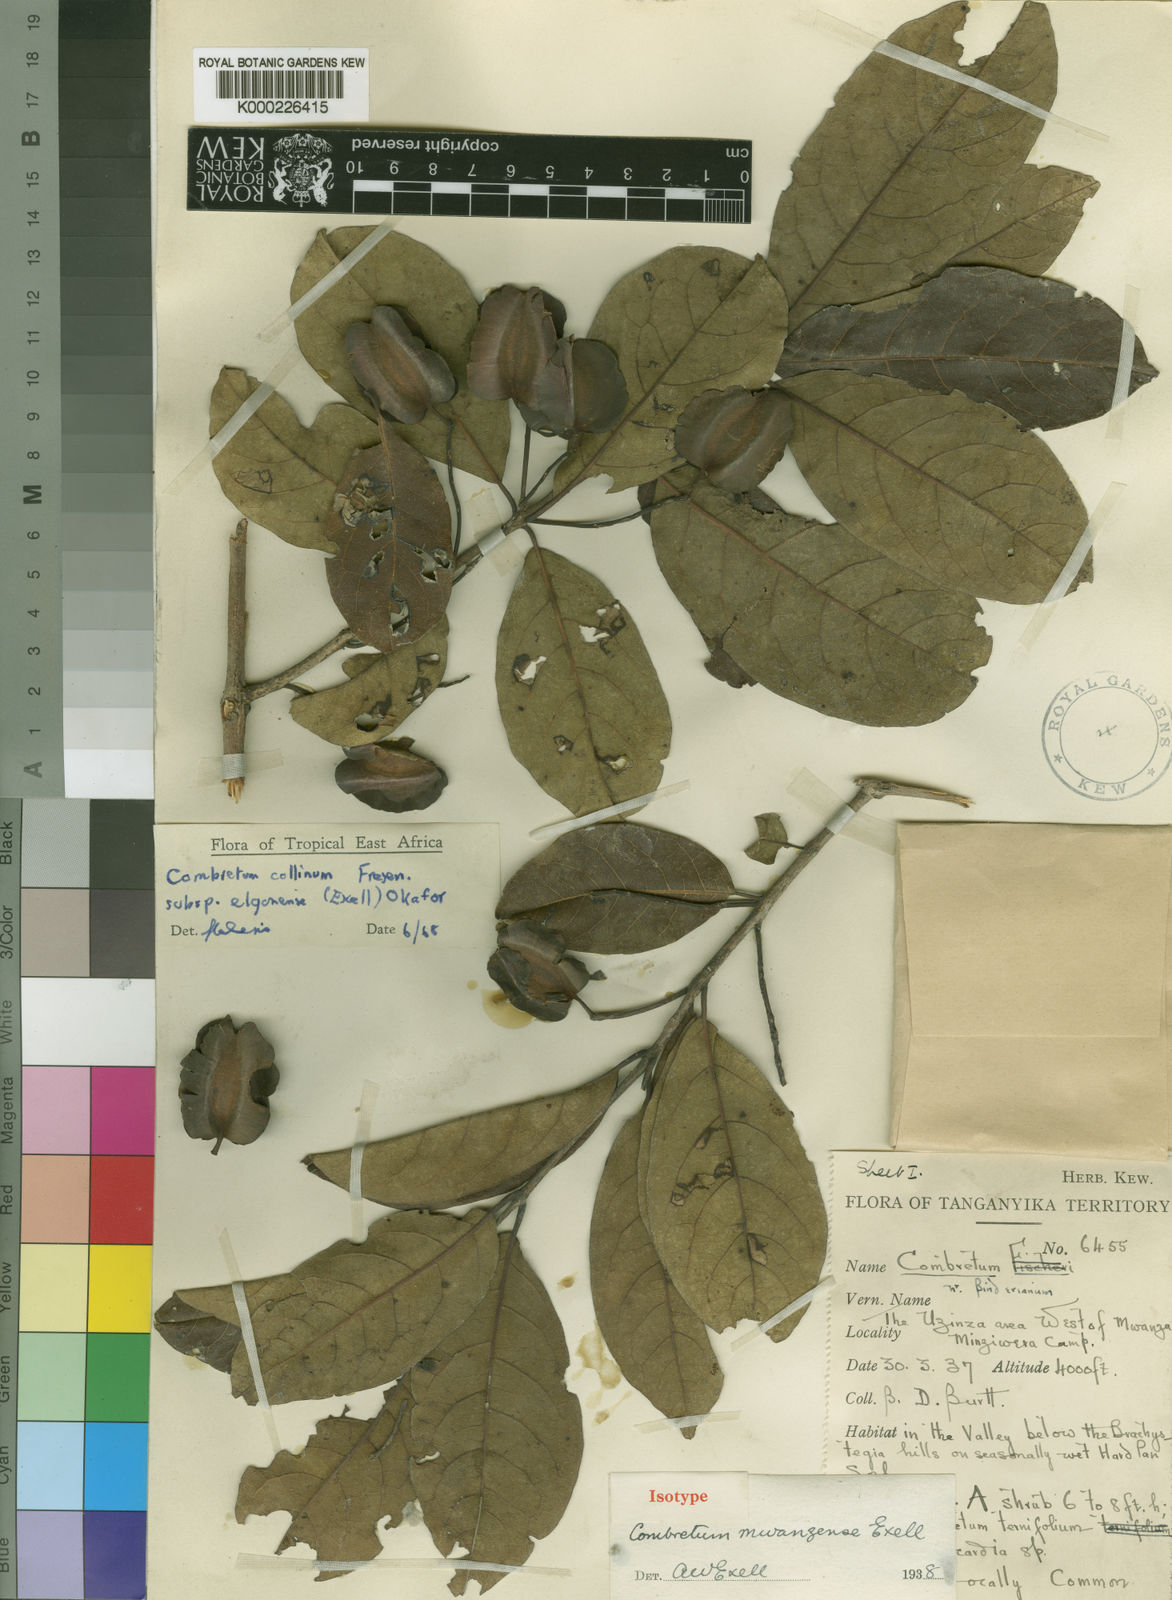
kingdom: Plantae
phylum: Tracheophyta
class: Magnoliopsida
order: Myrtales
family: Combretaceae
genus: Combretum
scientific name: Combretum collinum
